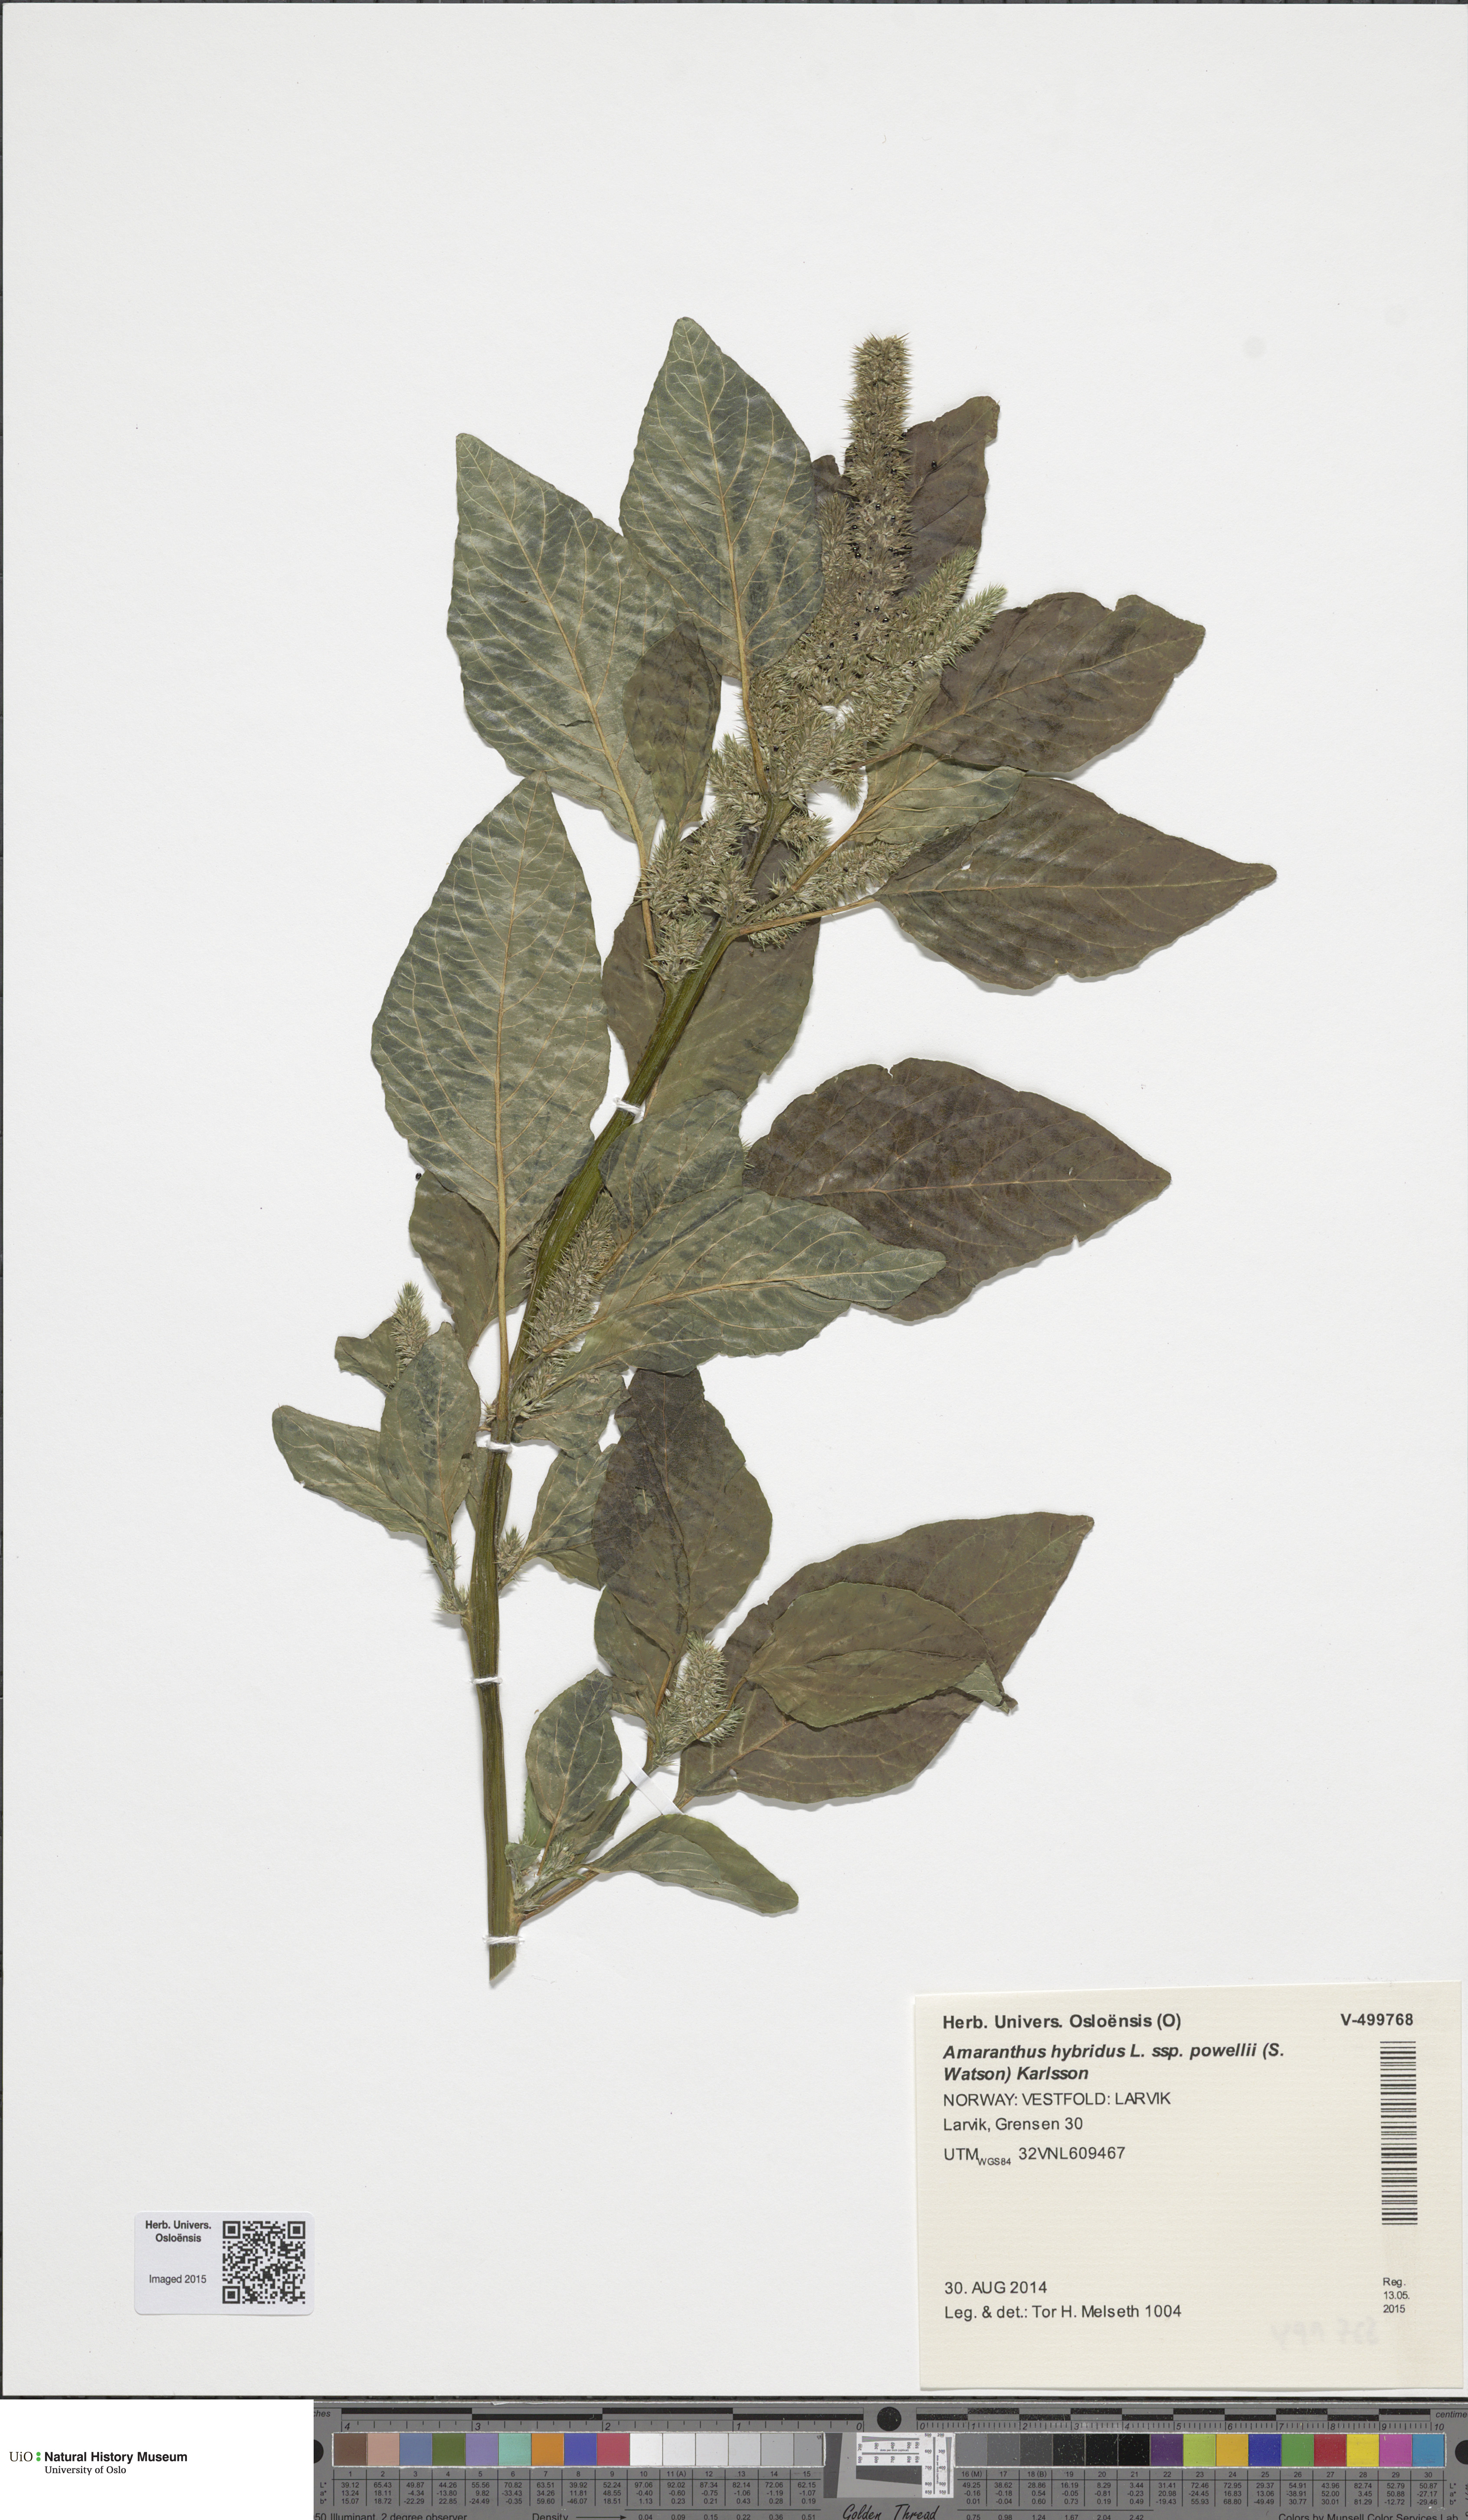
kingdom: Plantae
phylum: Tracheophyta
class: Magnoliopsida
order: Caryophyllales
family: Amaranthaceae
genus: Amaranthus
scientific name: Amaranthus powellii
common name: Powell's amaranth
